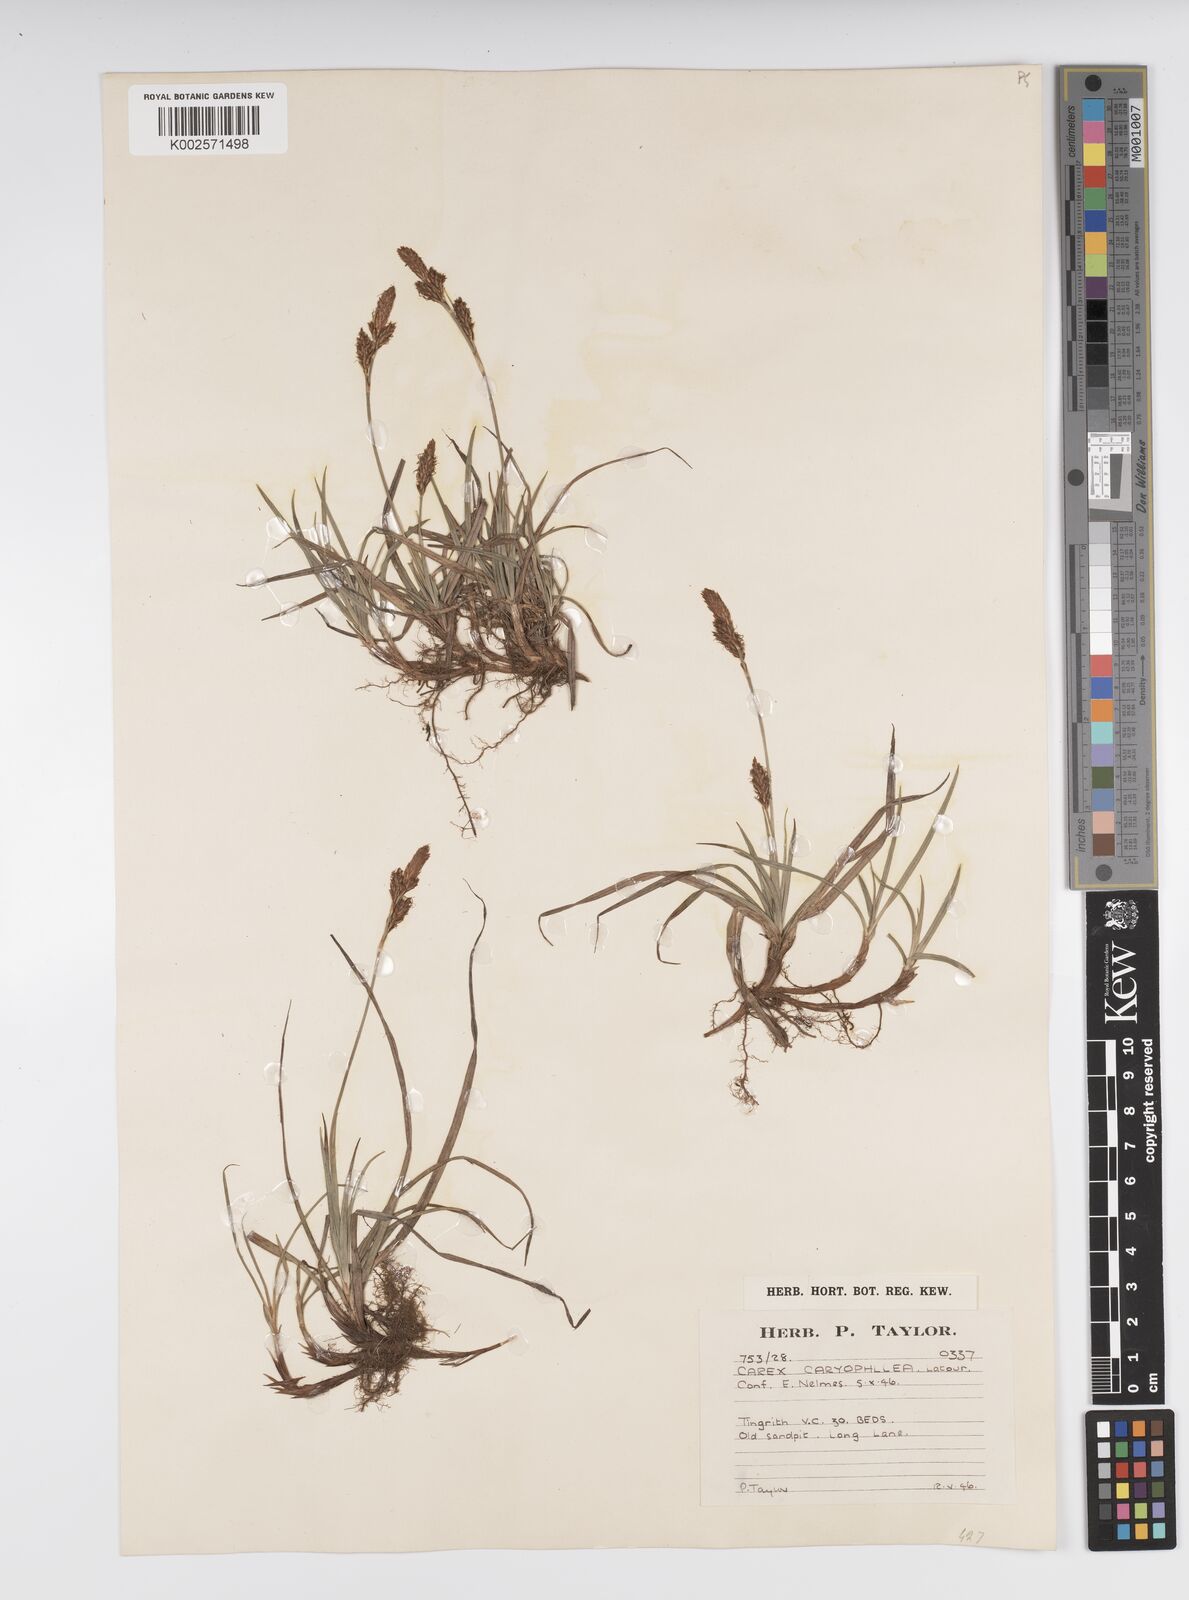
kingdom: Plantae
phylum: Tracheophyta
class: Liliopsida
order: Poales
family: Cyperaceae
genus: Carex
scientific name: Carex caryophyllea
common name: Spring sedge
